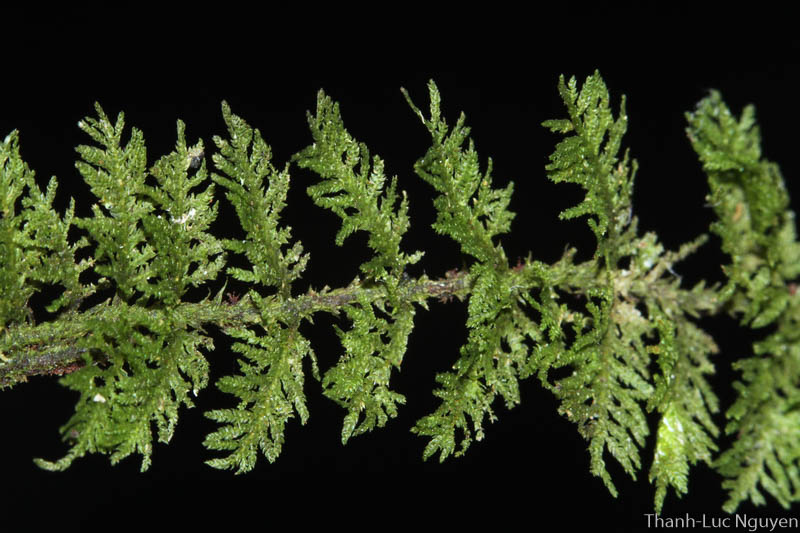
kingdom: Plantae
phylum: Bryophyta
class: Bryopsida
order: Hypnales
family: Thuidiaceae
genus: Thuidium
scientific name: Thuidium
